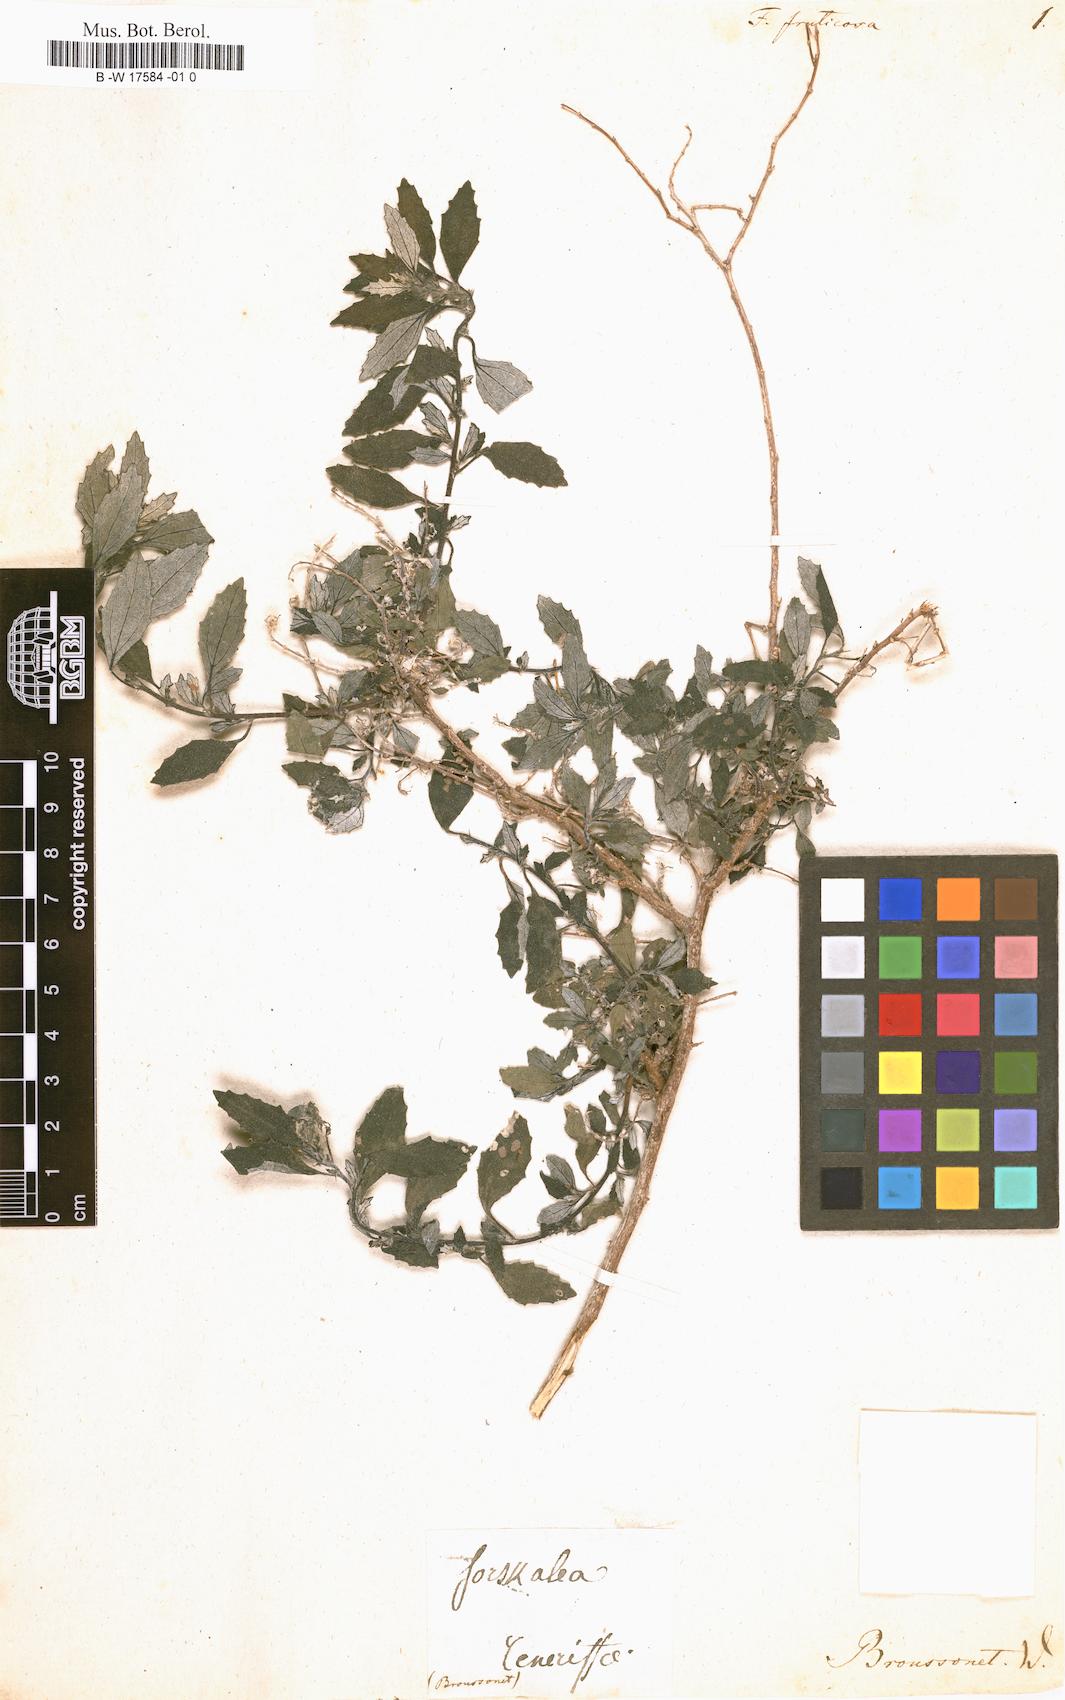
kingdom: Plantae
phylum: Tracheophyta
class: Magnoliopsida
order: Rosales
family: Urticaceae
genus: Forskohlea
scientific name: Forskohlea fructicosa
